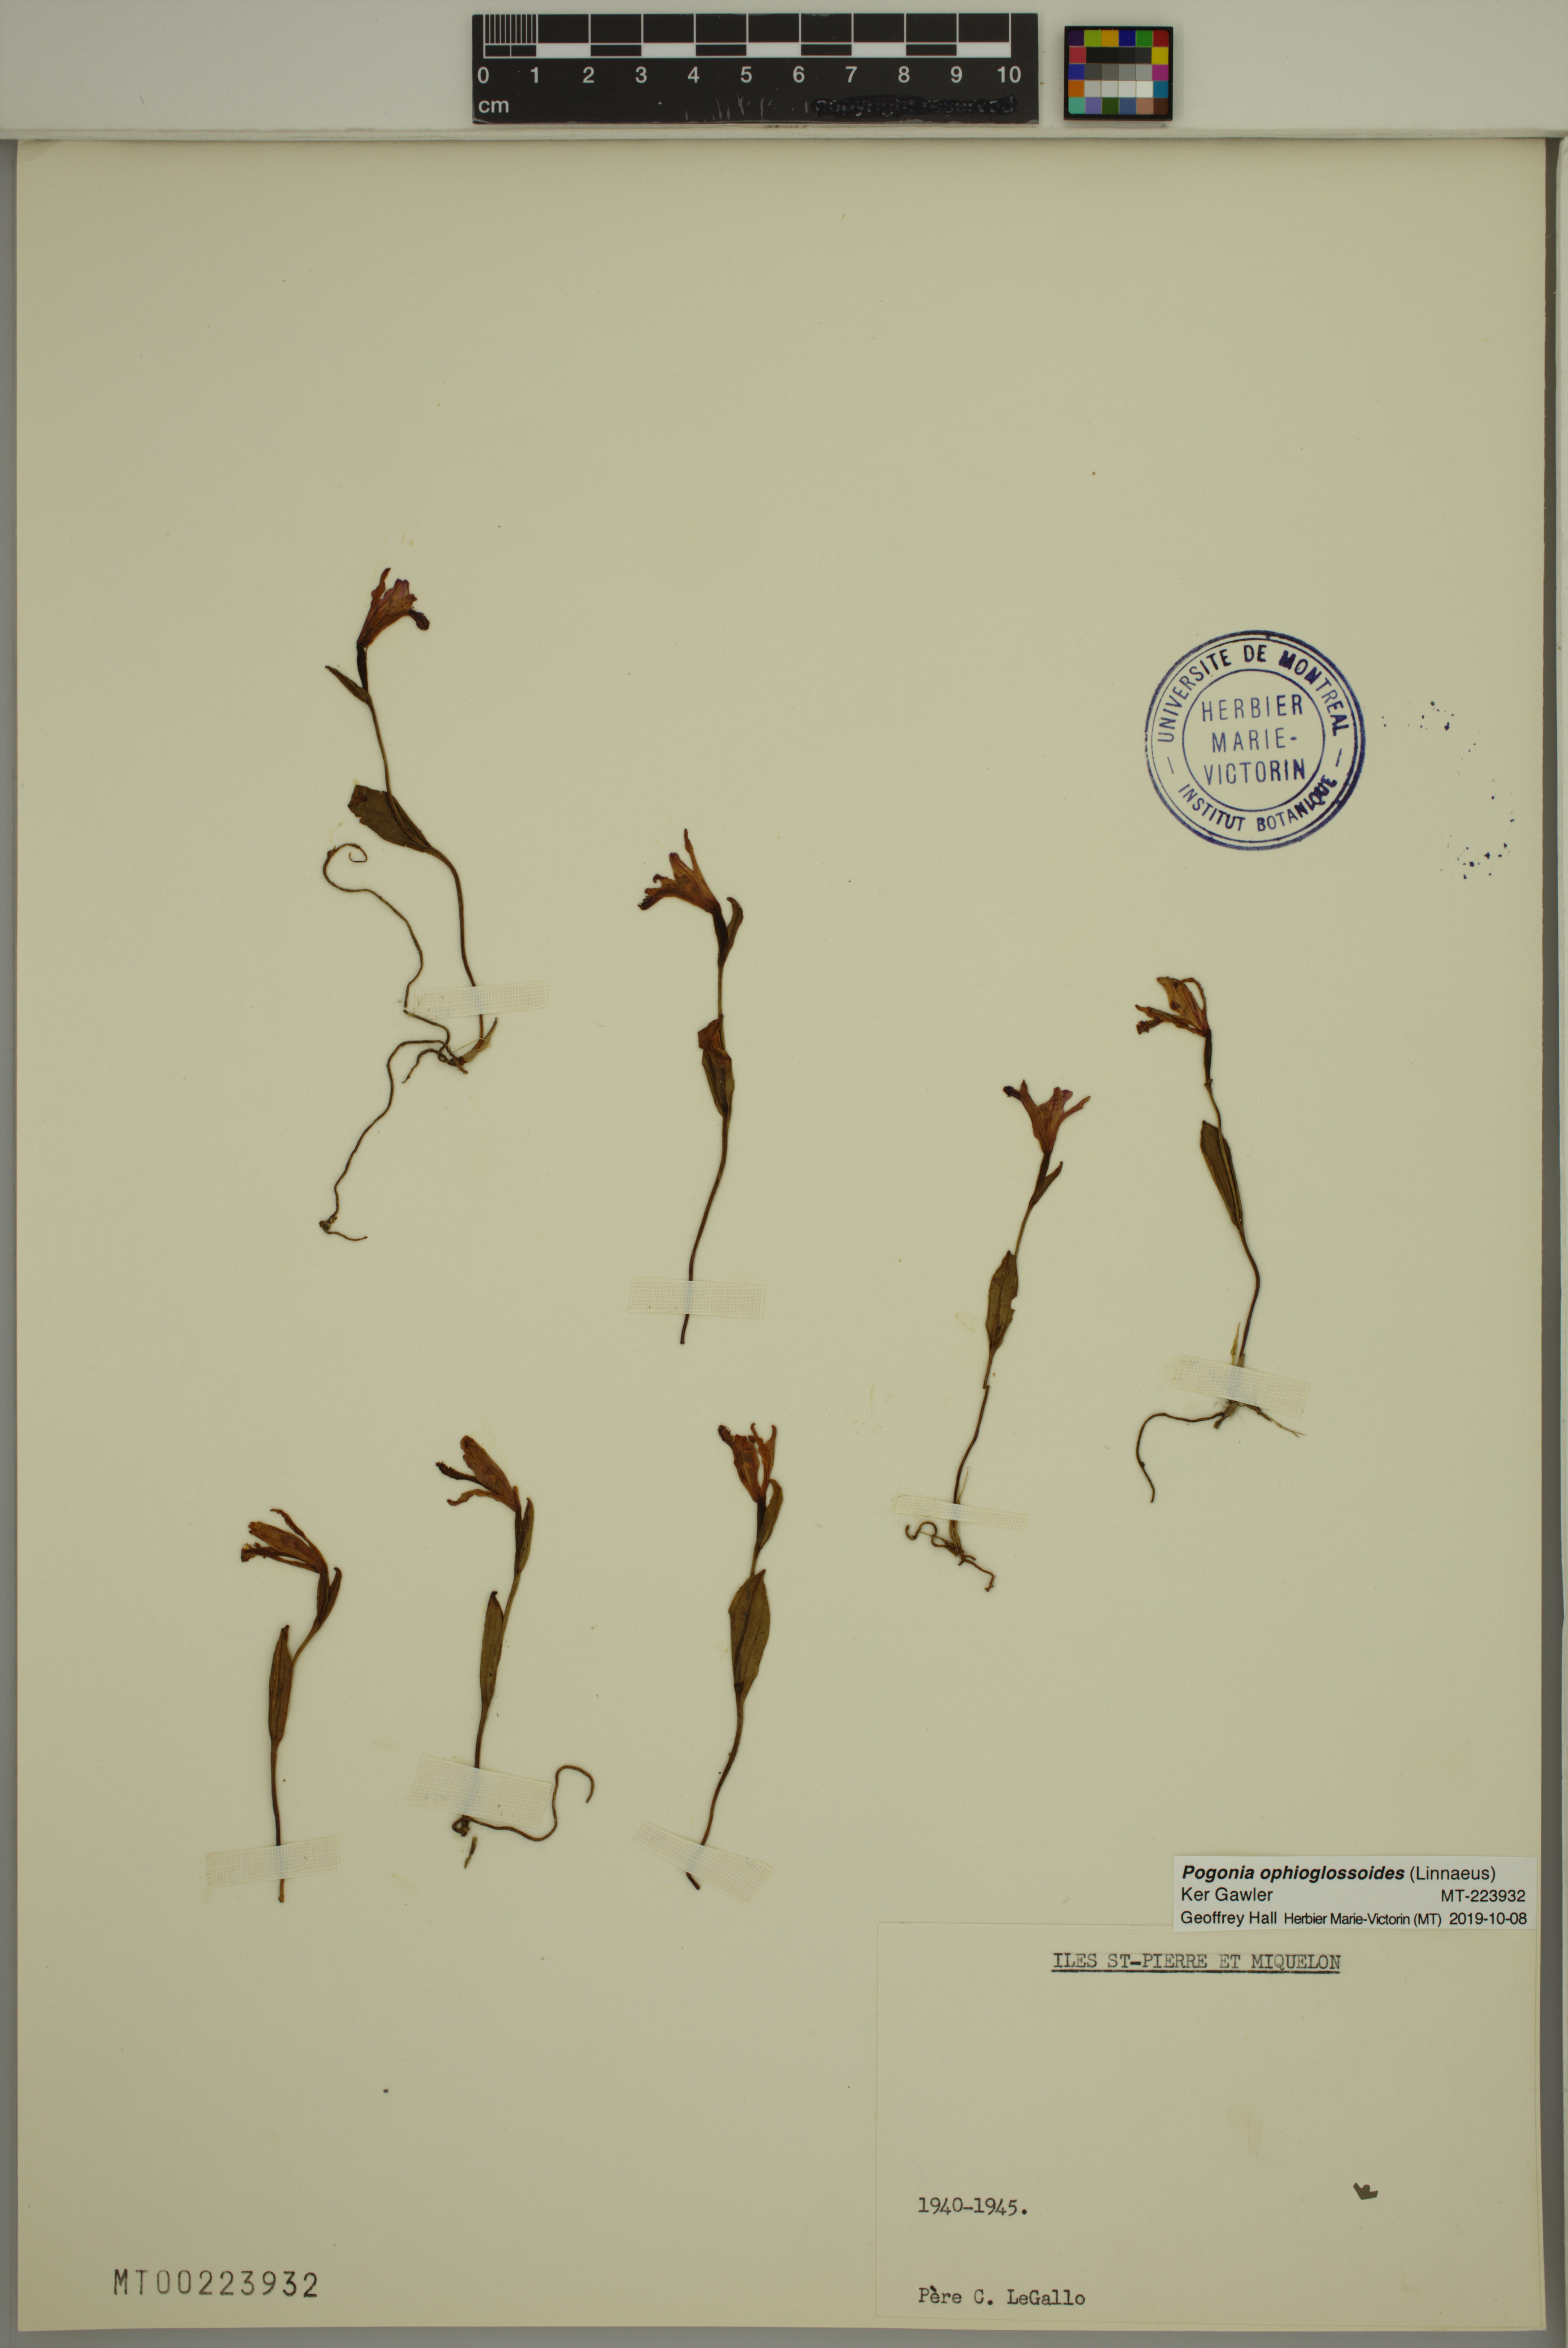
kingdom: Plantae
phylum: Tracheophyta
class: Liliopsida
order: Asparagales
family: Orchidaceae
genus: Pogonia
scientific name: Pogonia ophioglossoides
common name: Rose pogonia
